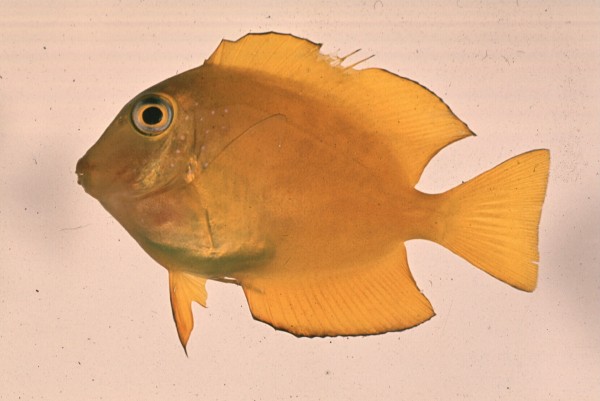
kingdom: Animalia
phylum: Chordata
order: Perciformes
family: Acanthuridae
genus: Ctenochaetus
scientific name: Ctenochaetus truncatus
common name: Indian gold-ring bristle-tooth
